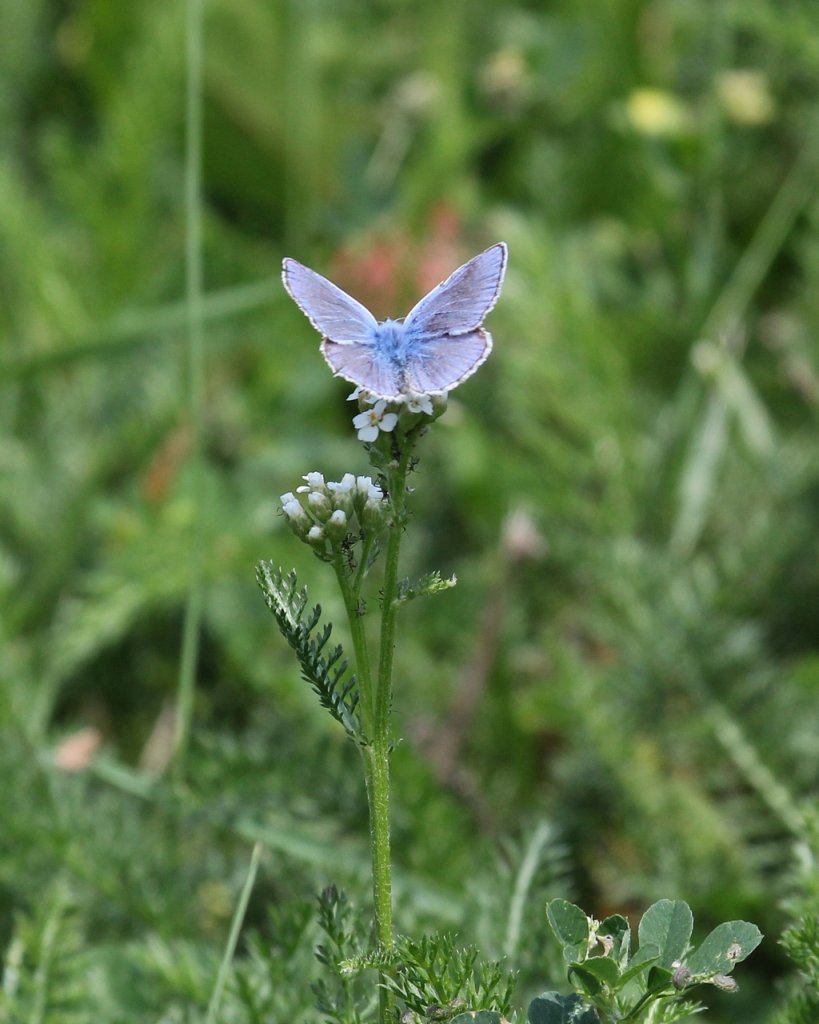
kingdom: Animalia
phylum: Arthropoda
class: Insecta
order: Lepidoptera
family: Lycaenidae
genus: Polyommatus
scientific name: Polyommatus icarus
